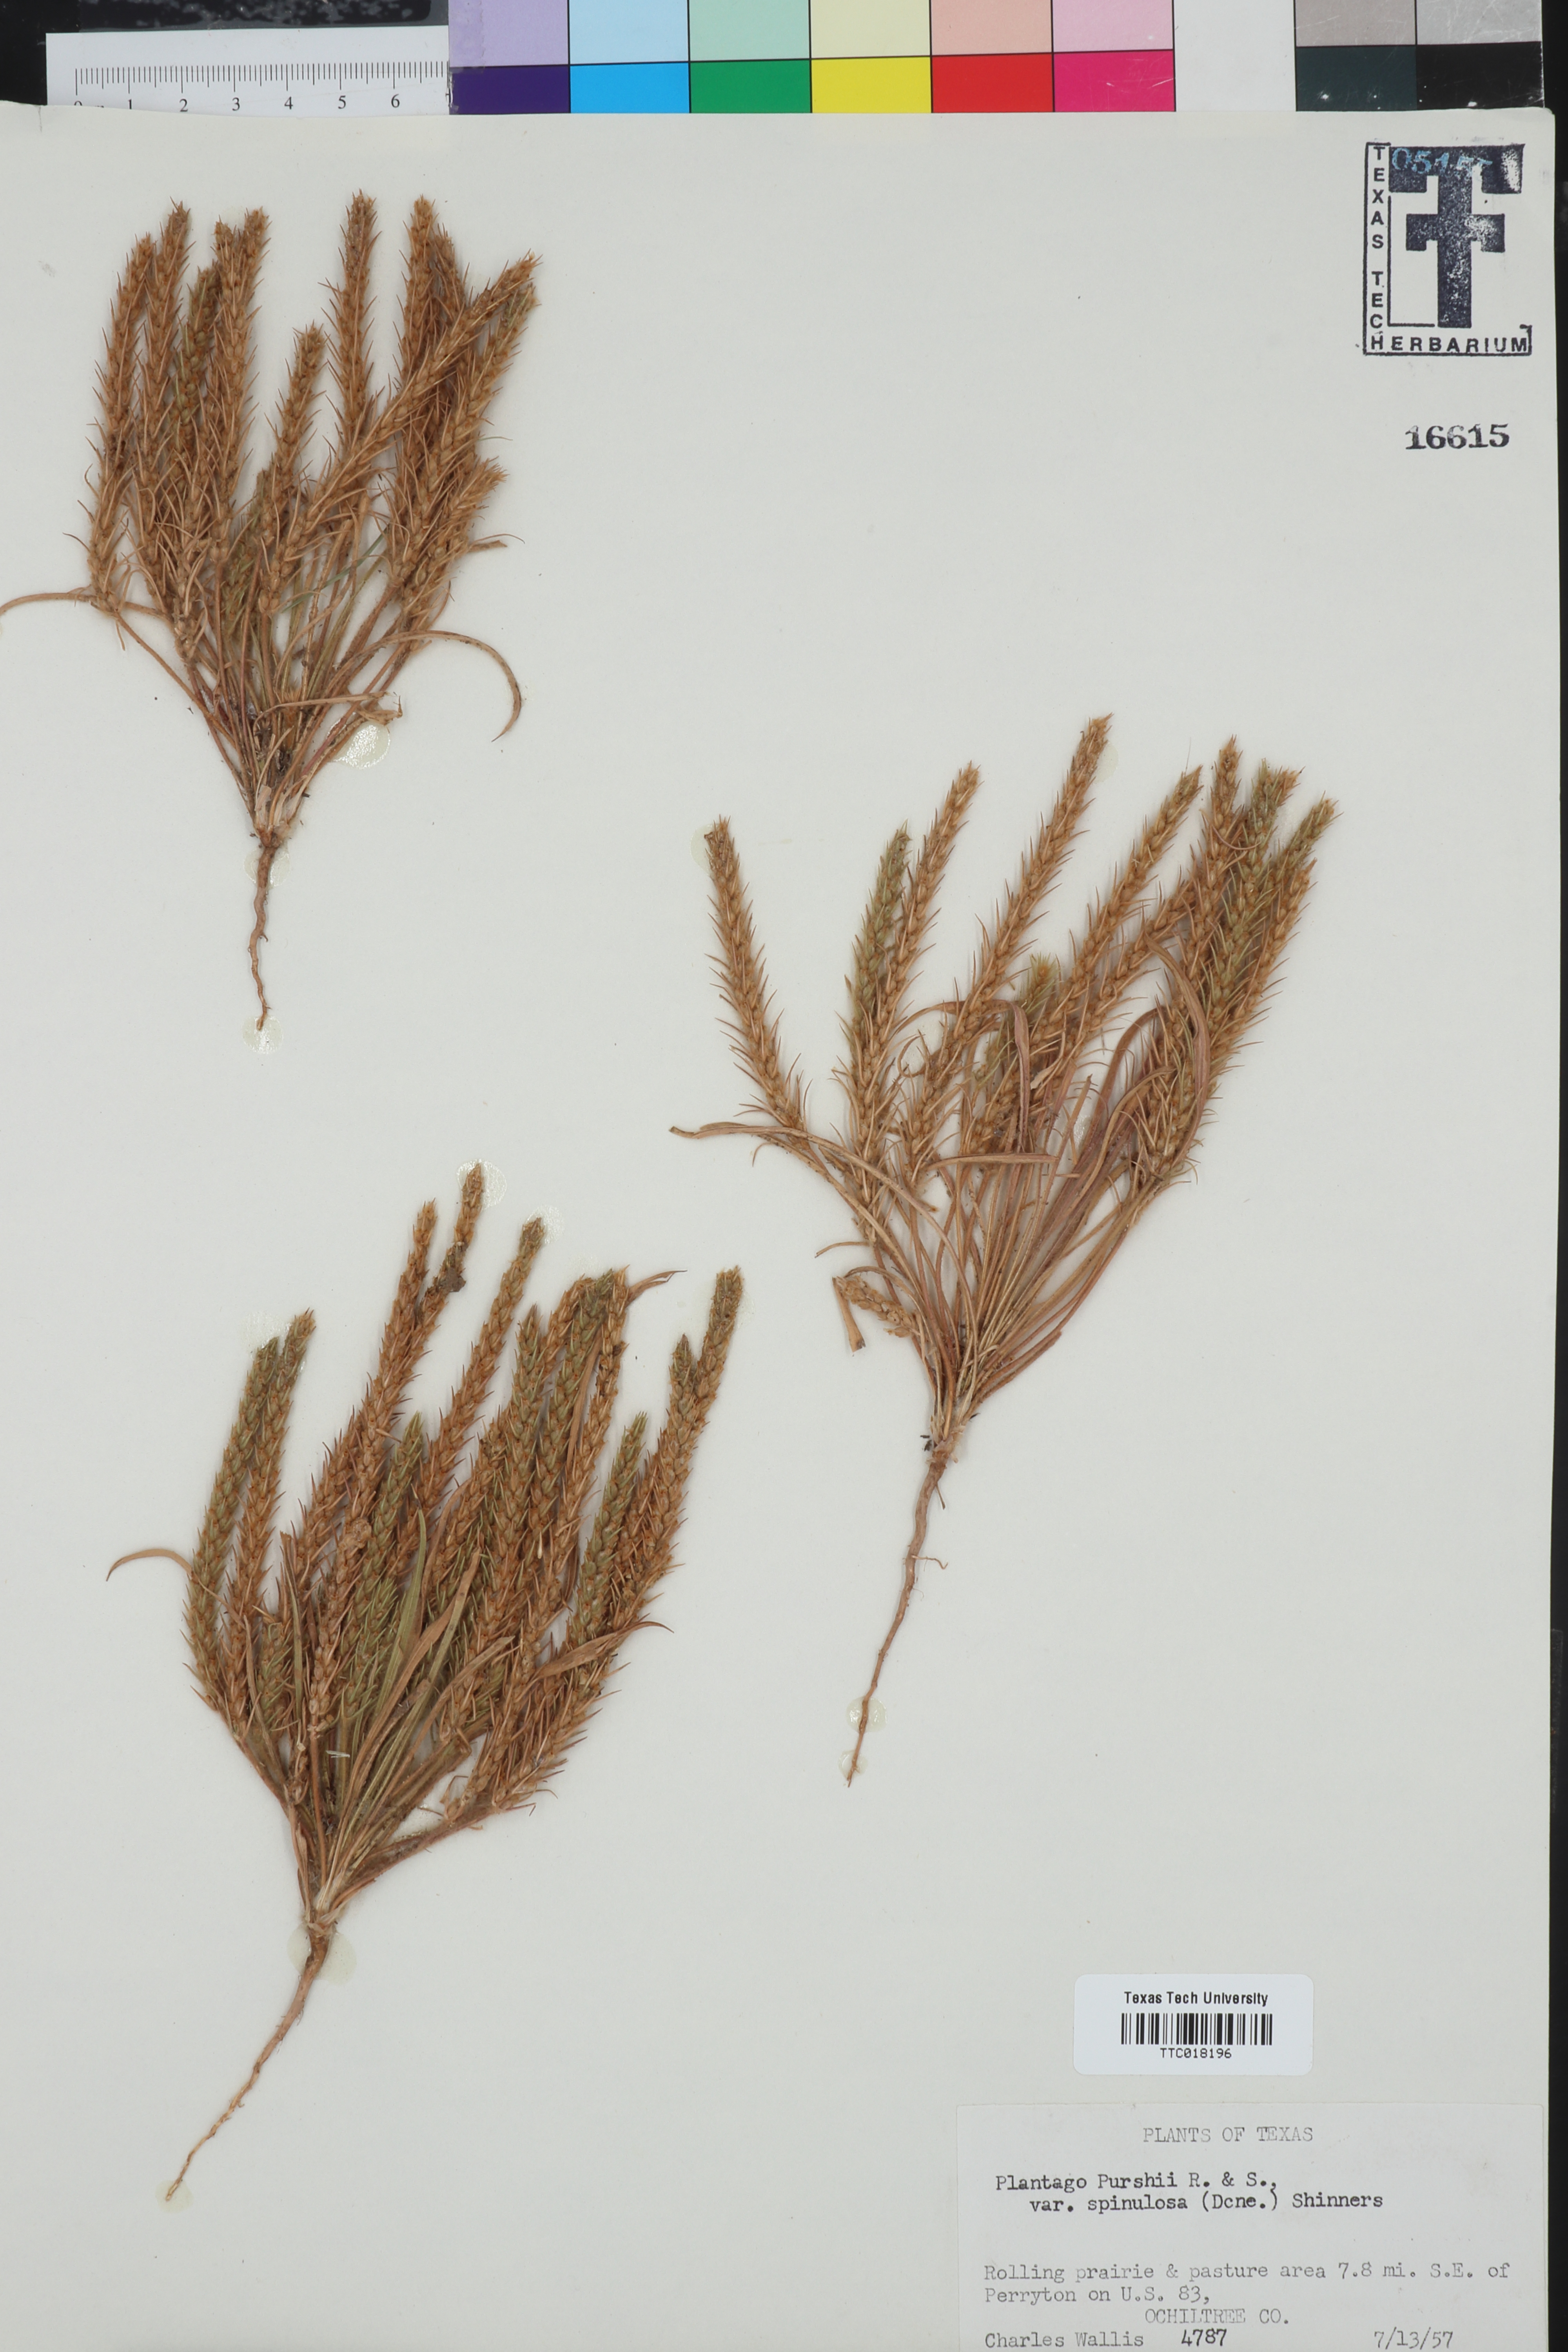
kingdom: Plantae
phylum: Tracheophyta
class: Magnoliopsida
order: Lamiales
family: Plantaginaceae
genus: Plantago
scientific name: Plantago patagonica
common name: Patagonia indian-wheat
